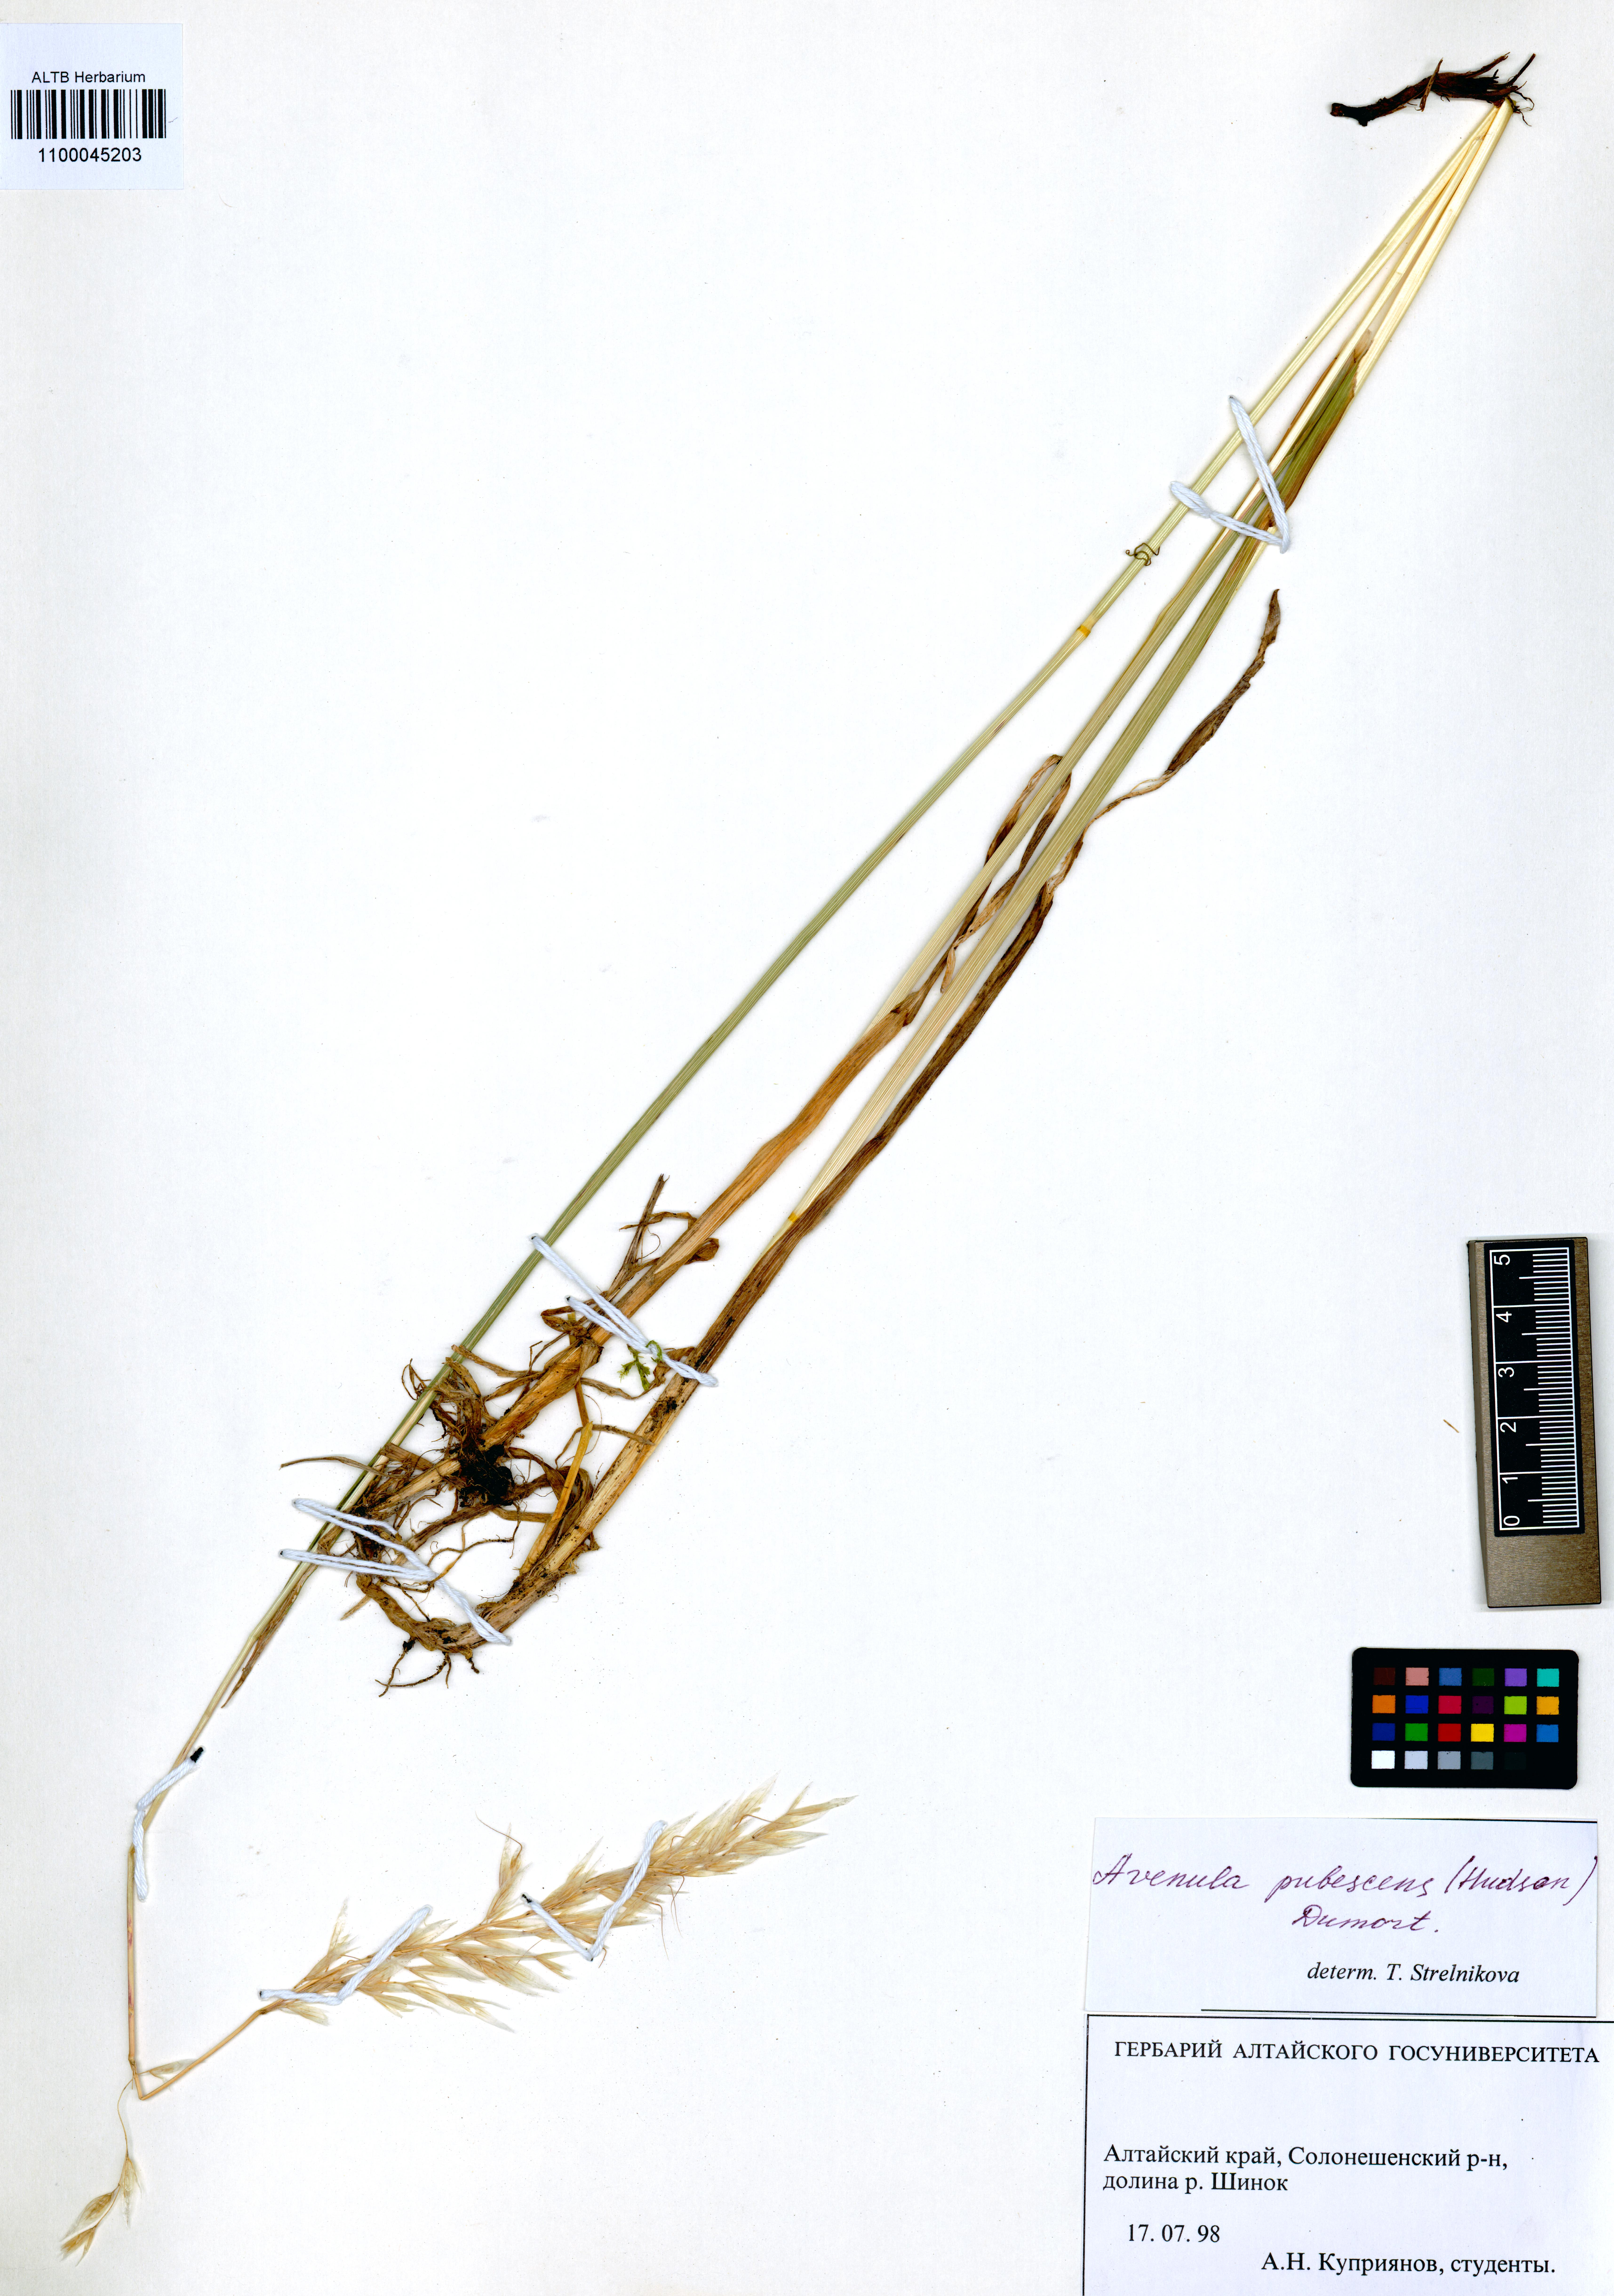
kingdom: Plantae
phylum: Tracheophyta
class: Liliopsida
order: Poales
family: Poaceae
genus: Avenula
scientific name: Avenula pubescens
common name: Downy alpine oatgrass
